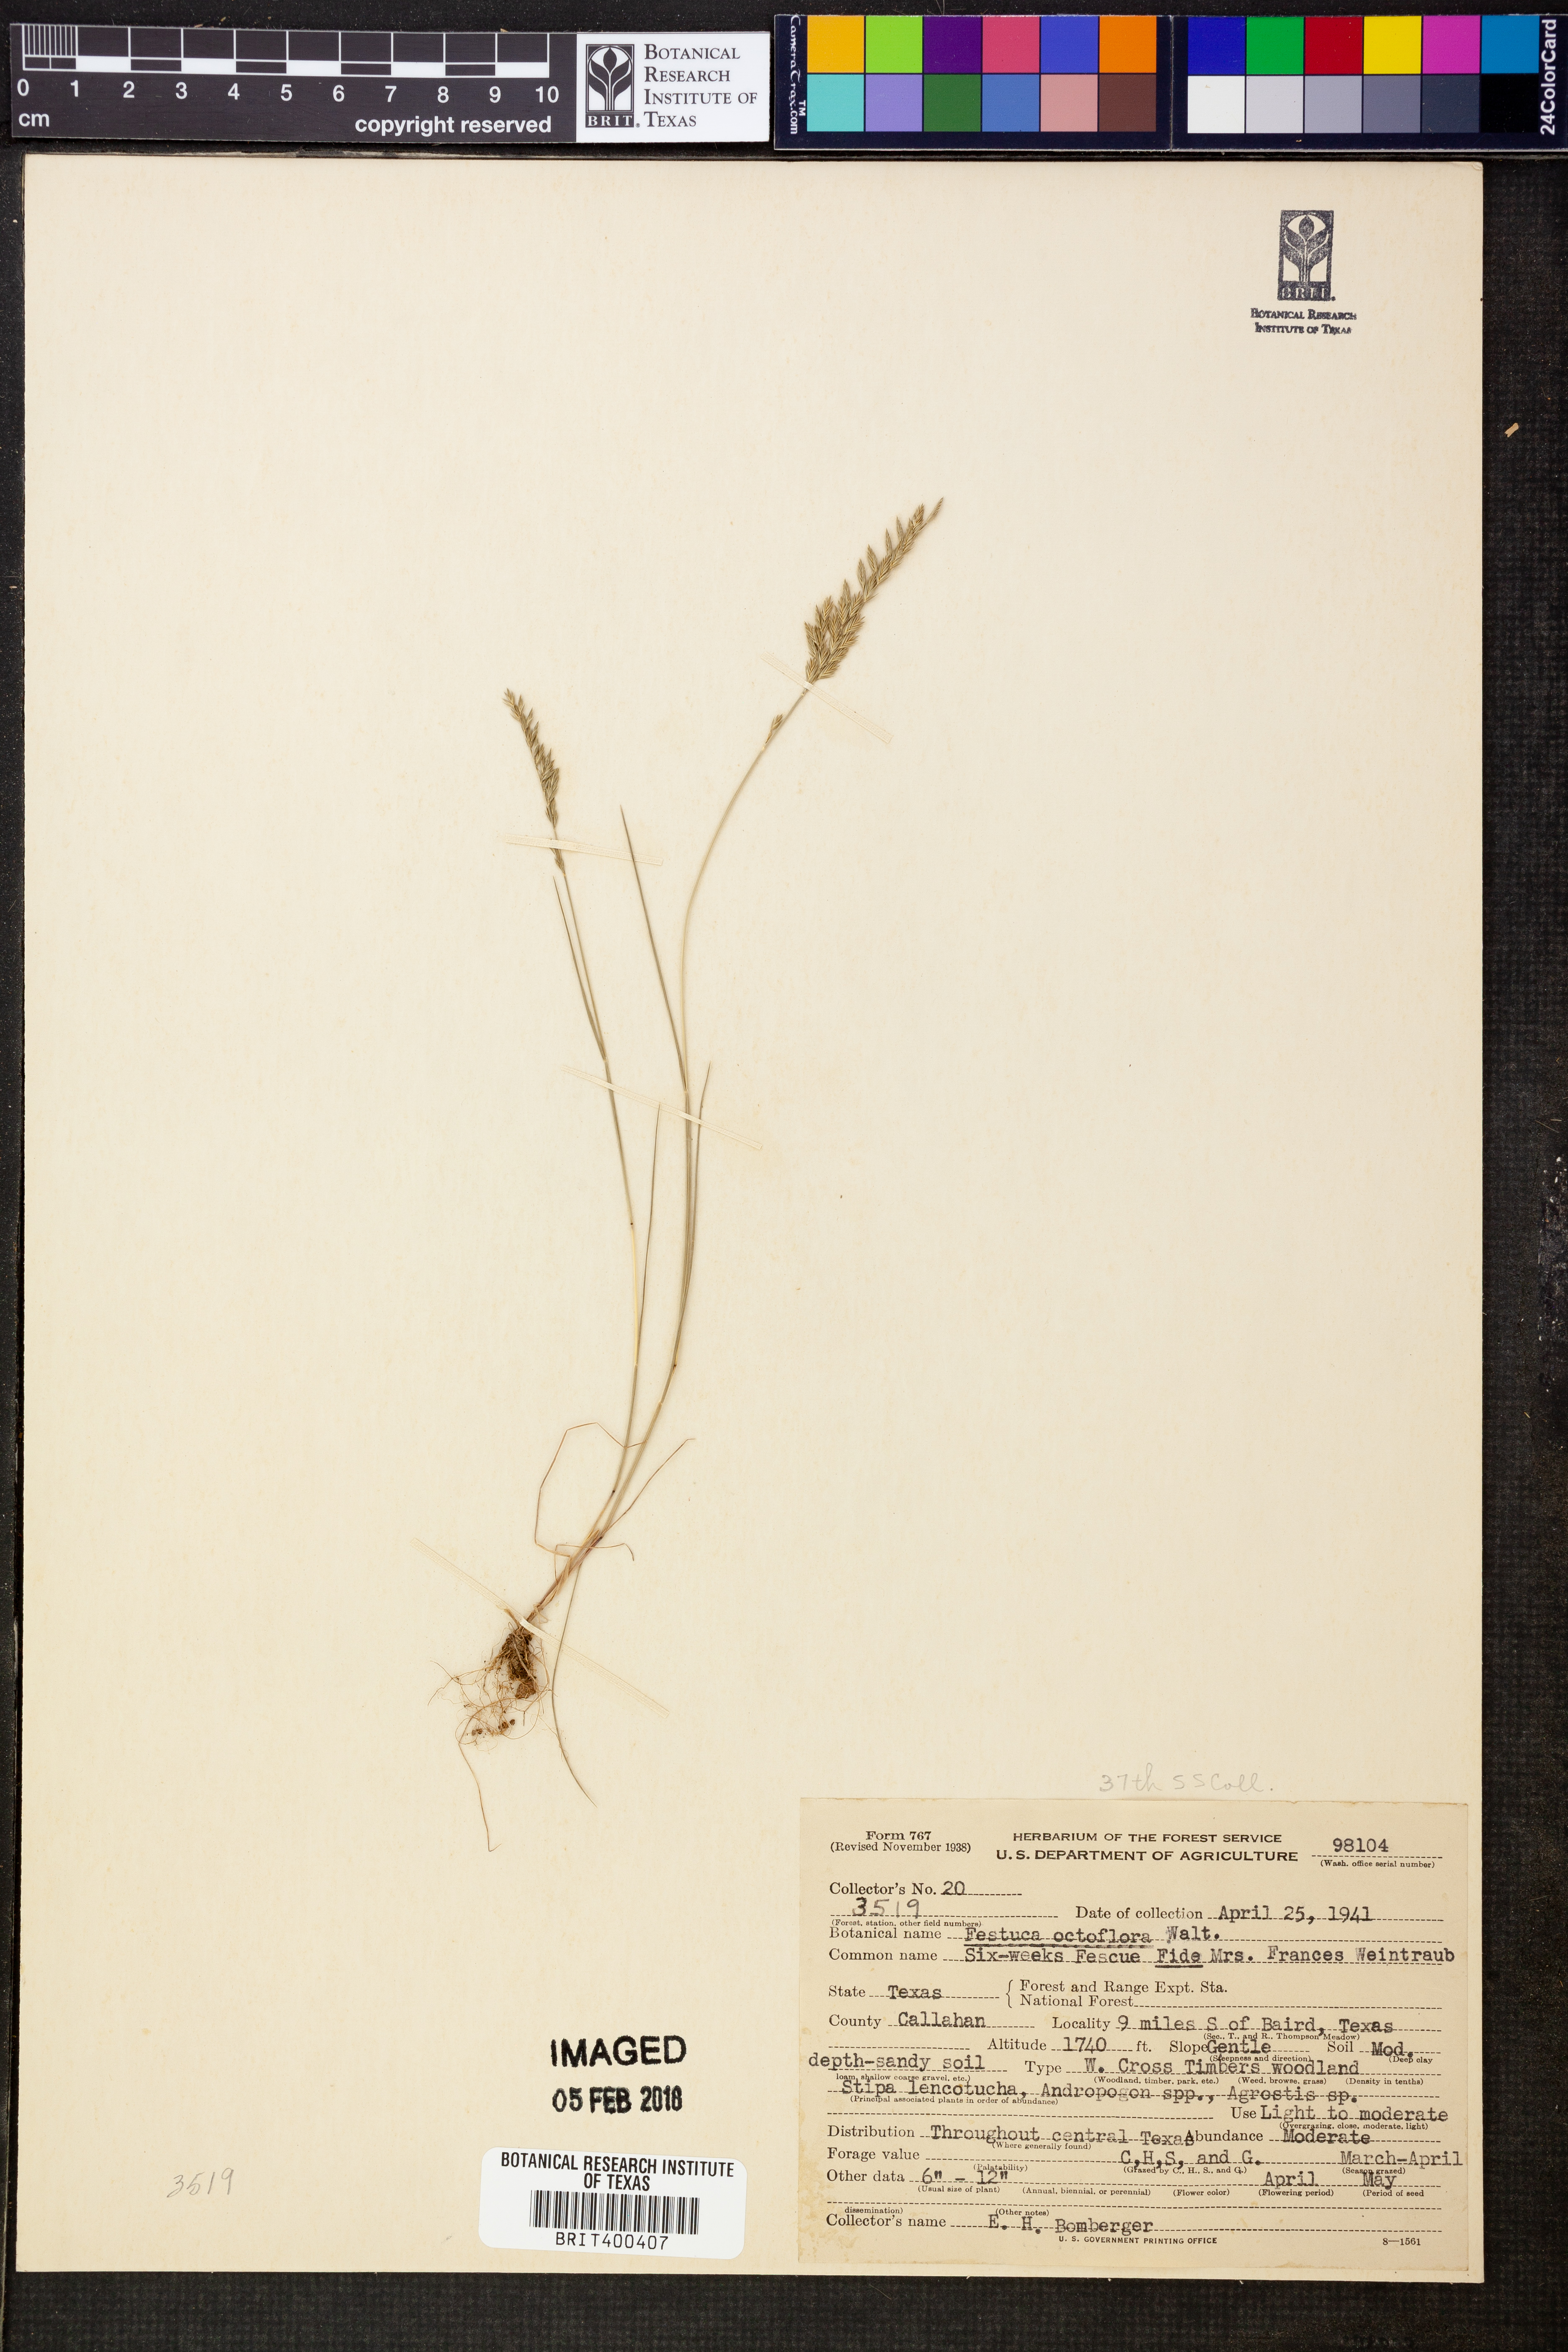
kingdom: Plantae
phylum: Tracheophyta
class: Liliopsida
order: Poales
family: Poaceae
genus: Festuca
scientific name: Festuca octoflora
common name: Sixweeks grass
